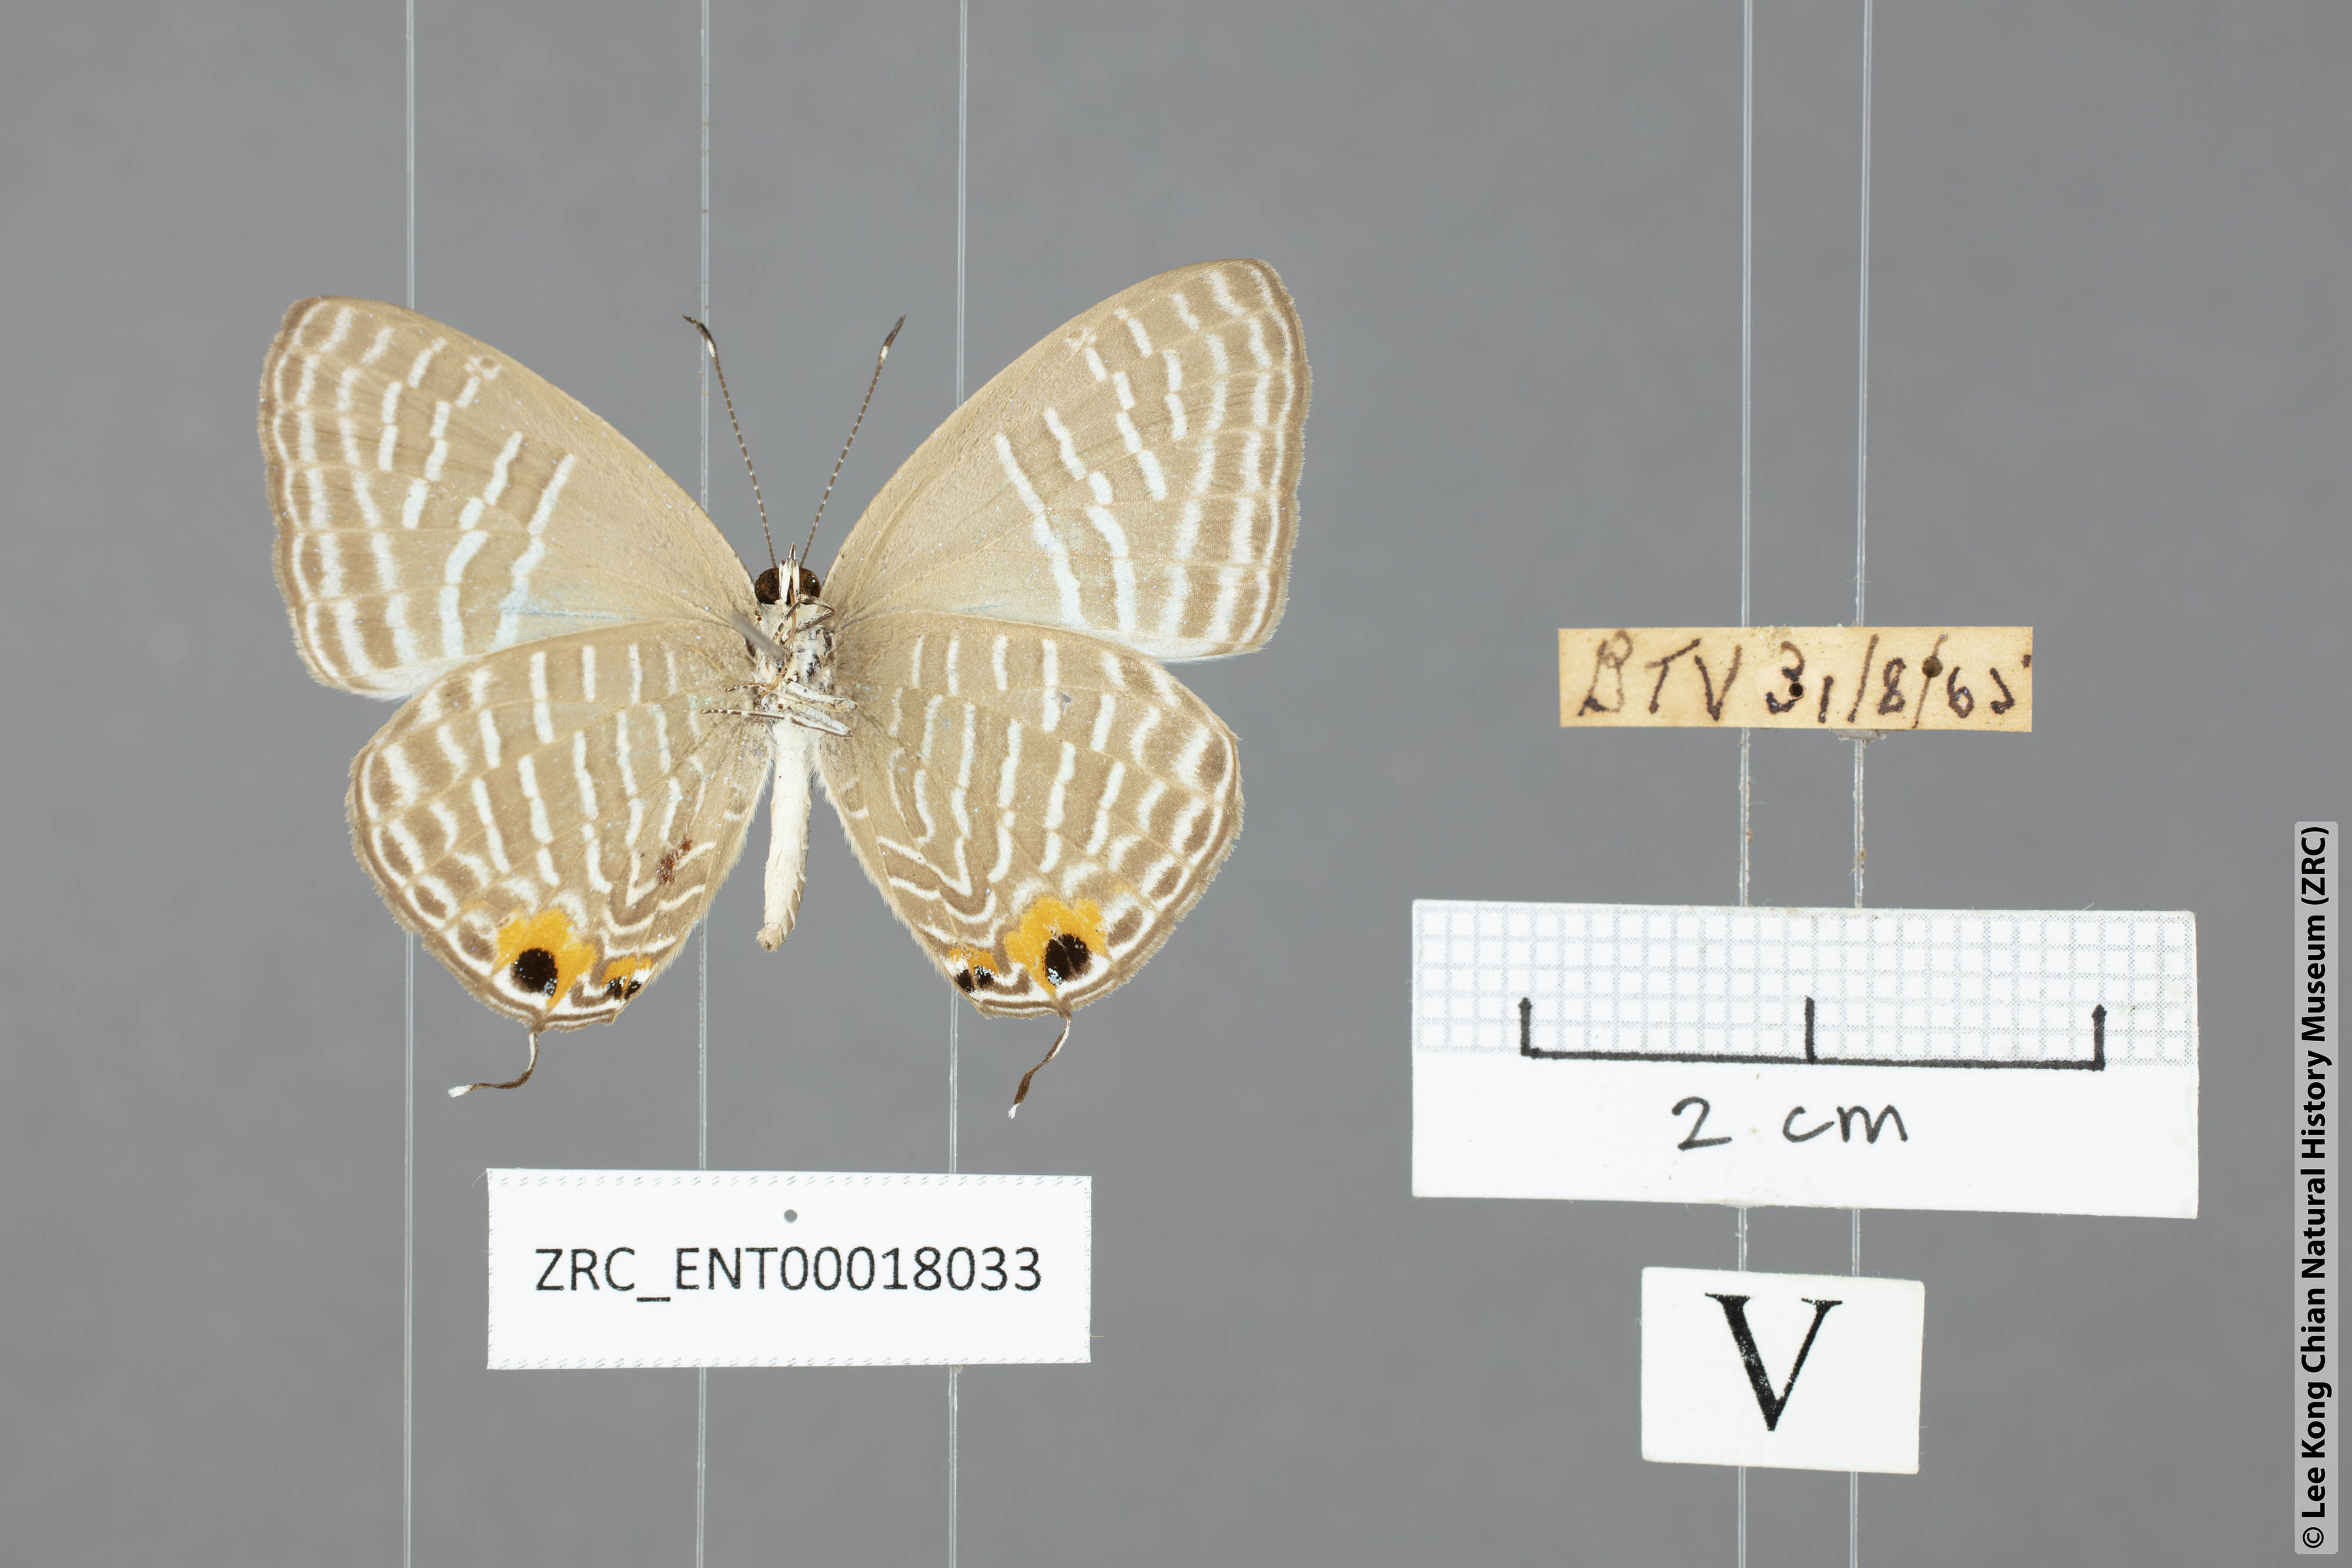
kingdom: Animalia
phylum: Arthropoda
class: Insecta
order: Lepidoptera
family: Lycaenidae
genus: Jamides
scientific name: Jamides alecto
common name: Metallic cerulean
